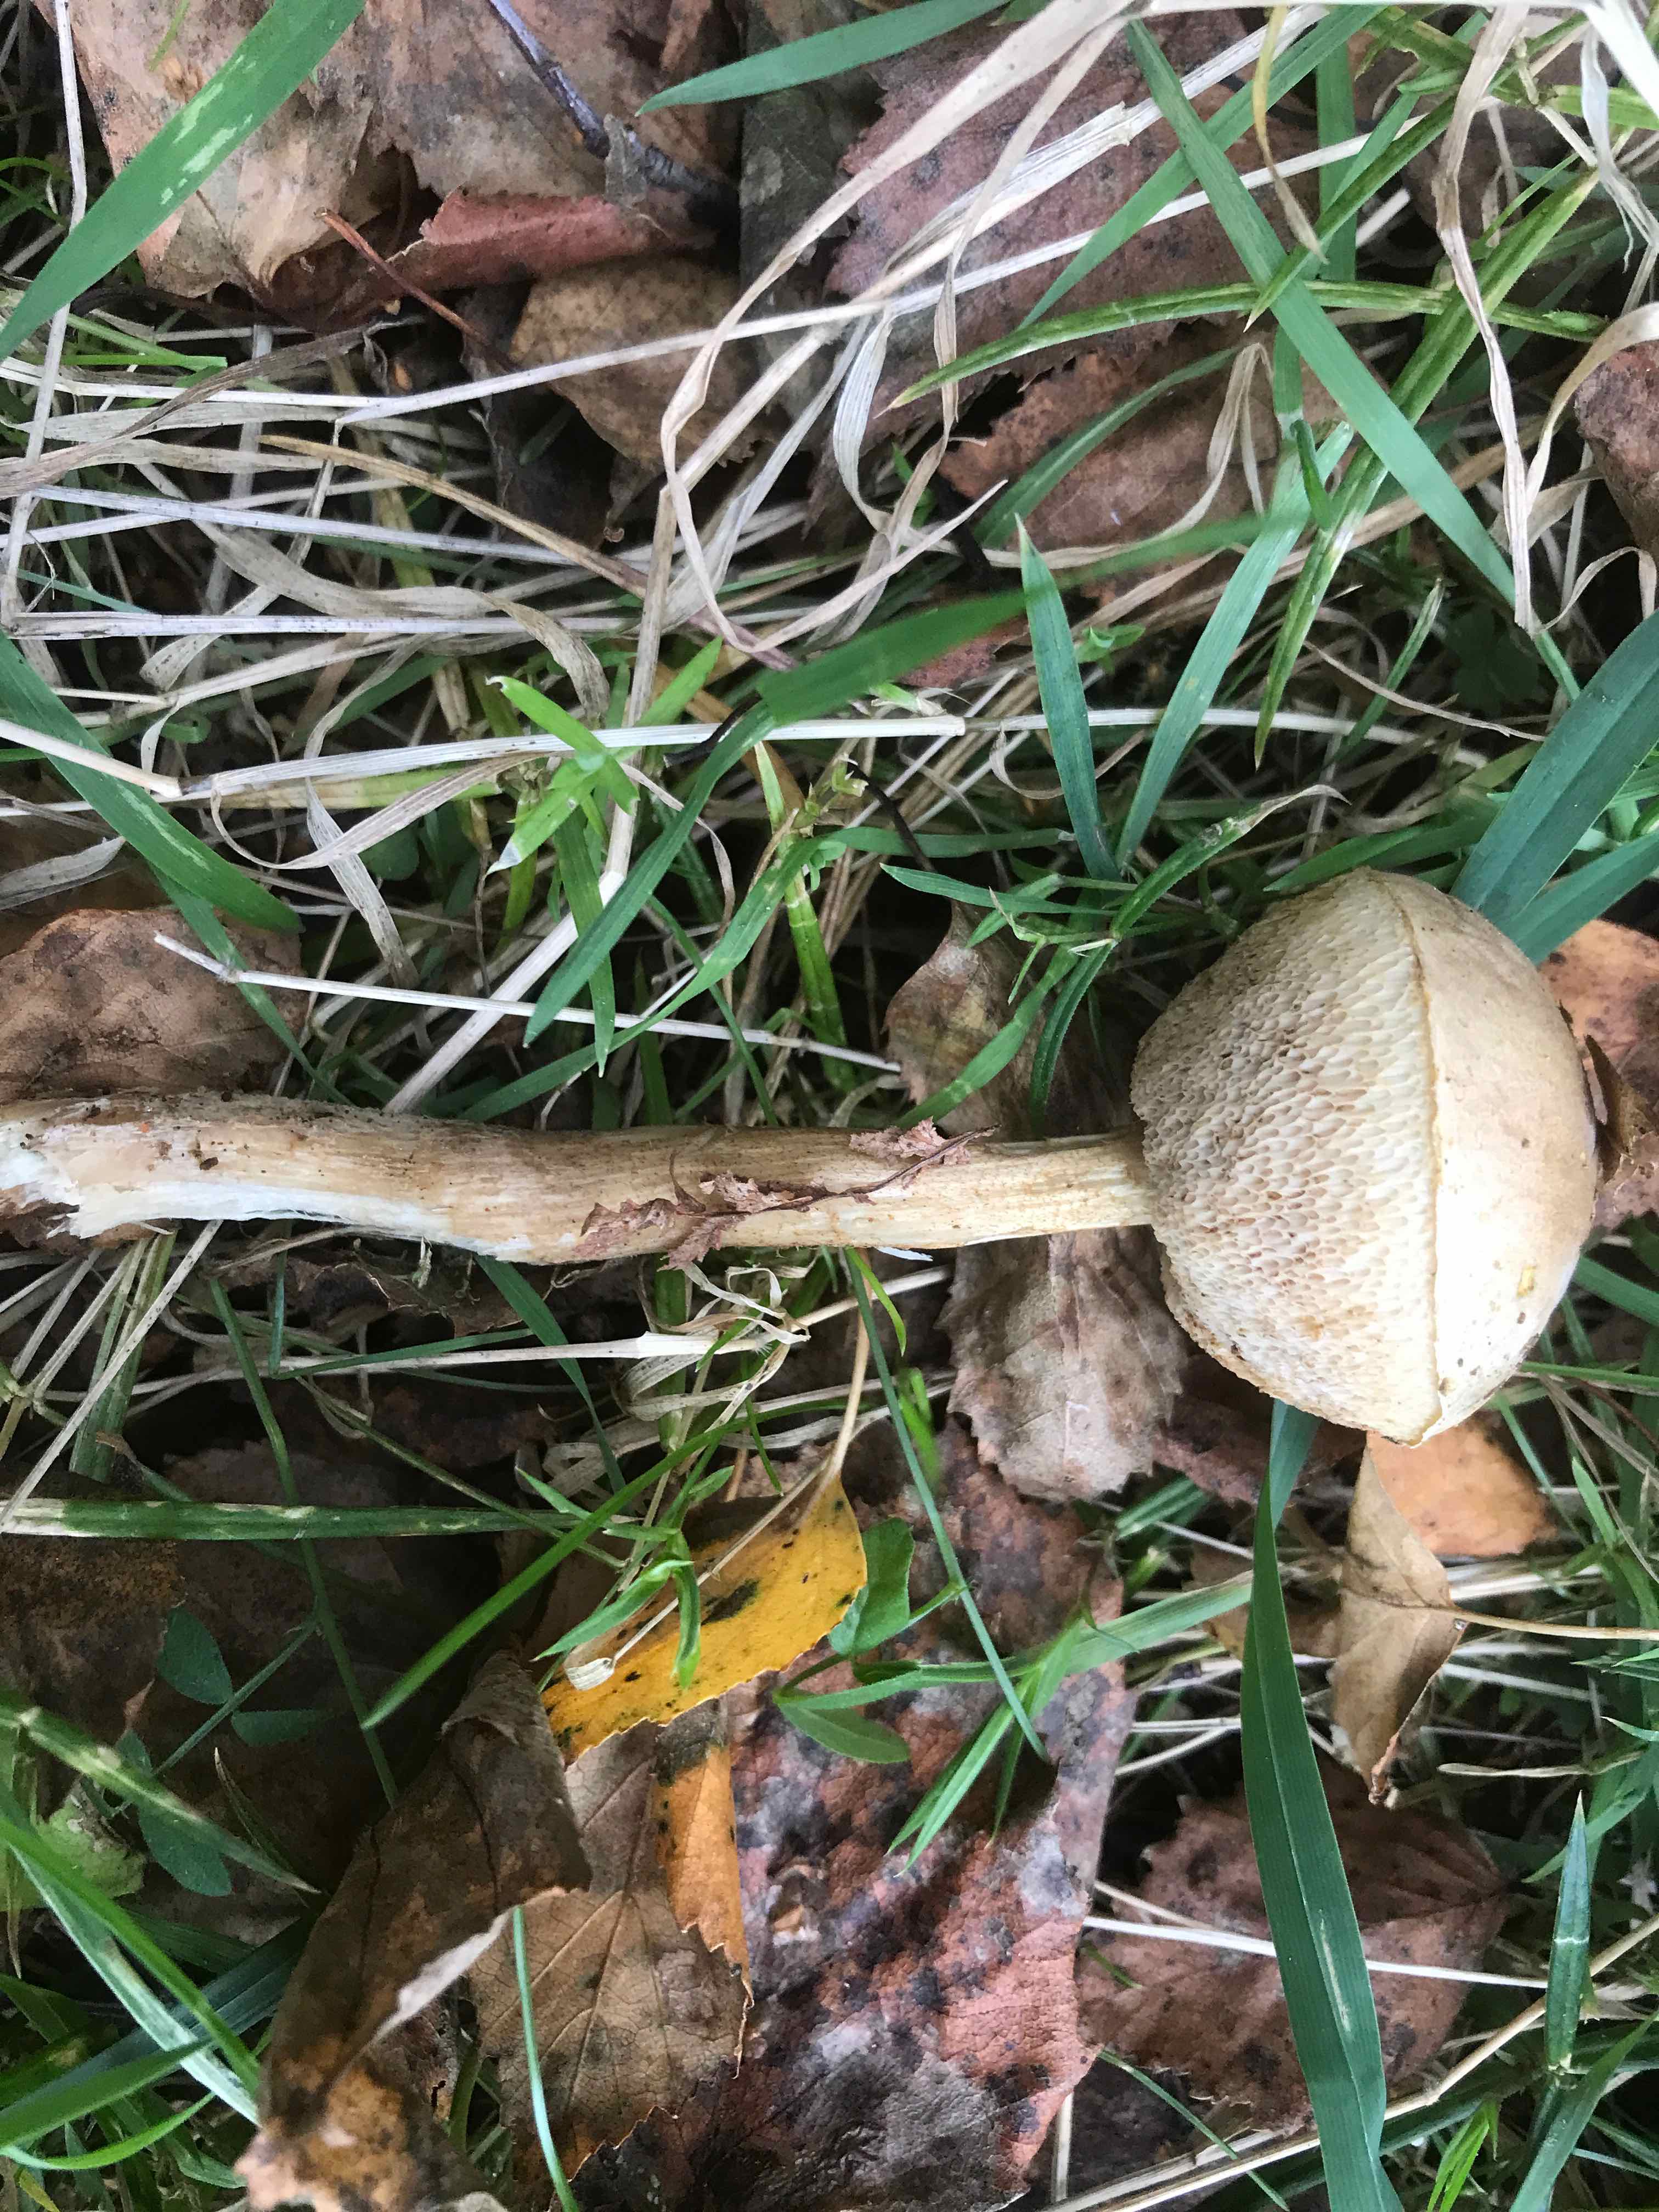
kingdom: Fungi
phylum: Basidiomycota
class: Agaricomycetes
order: Boletales
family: Boletaceae
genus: Leccinum
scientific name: Leccinum cyaneobasileucum
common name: almindelig skælrørhat
